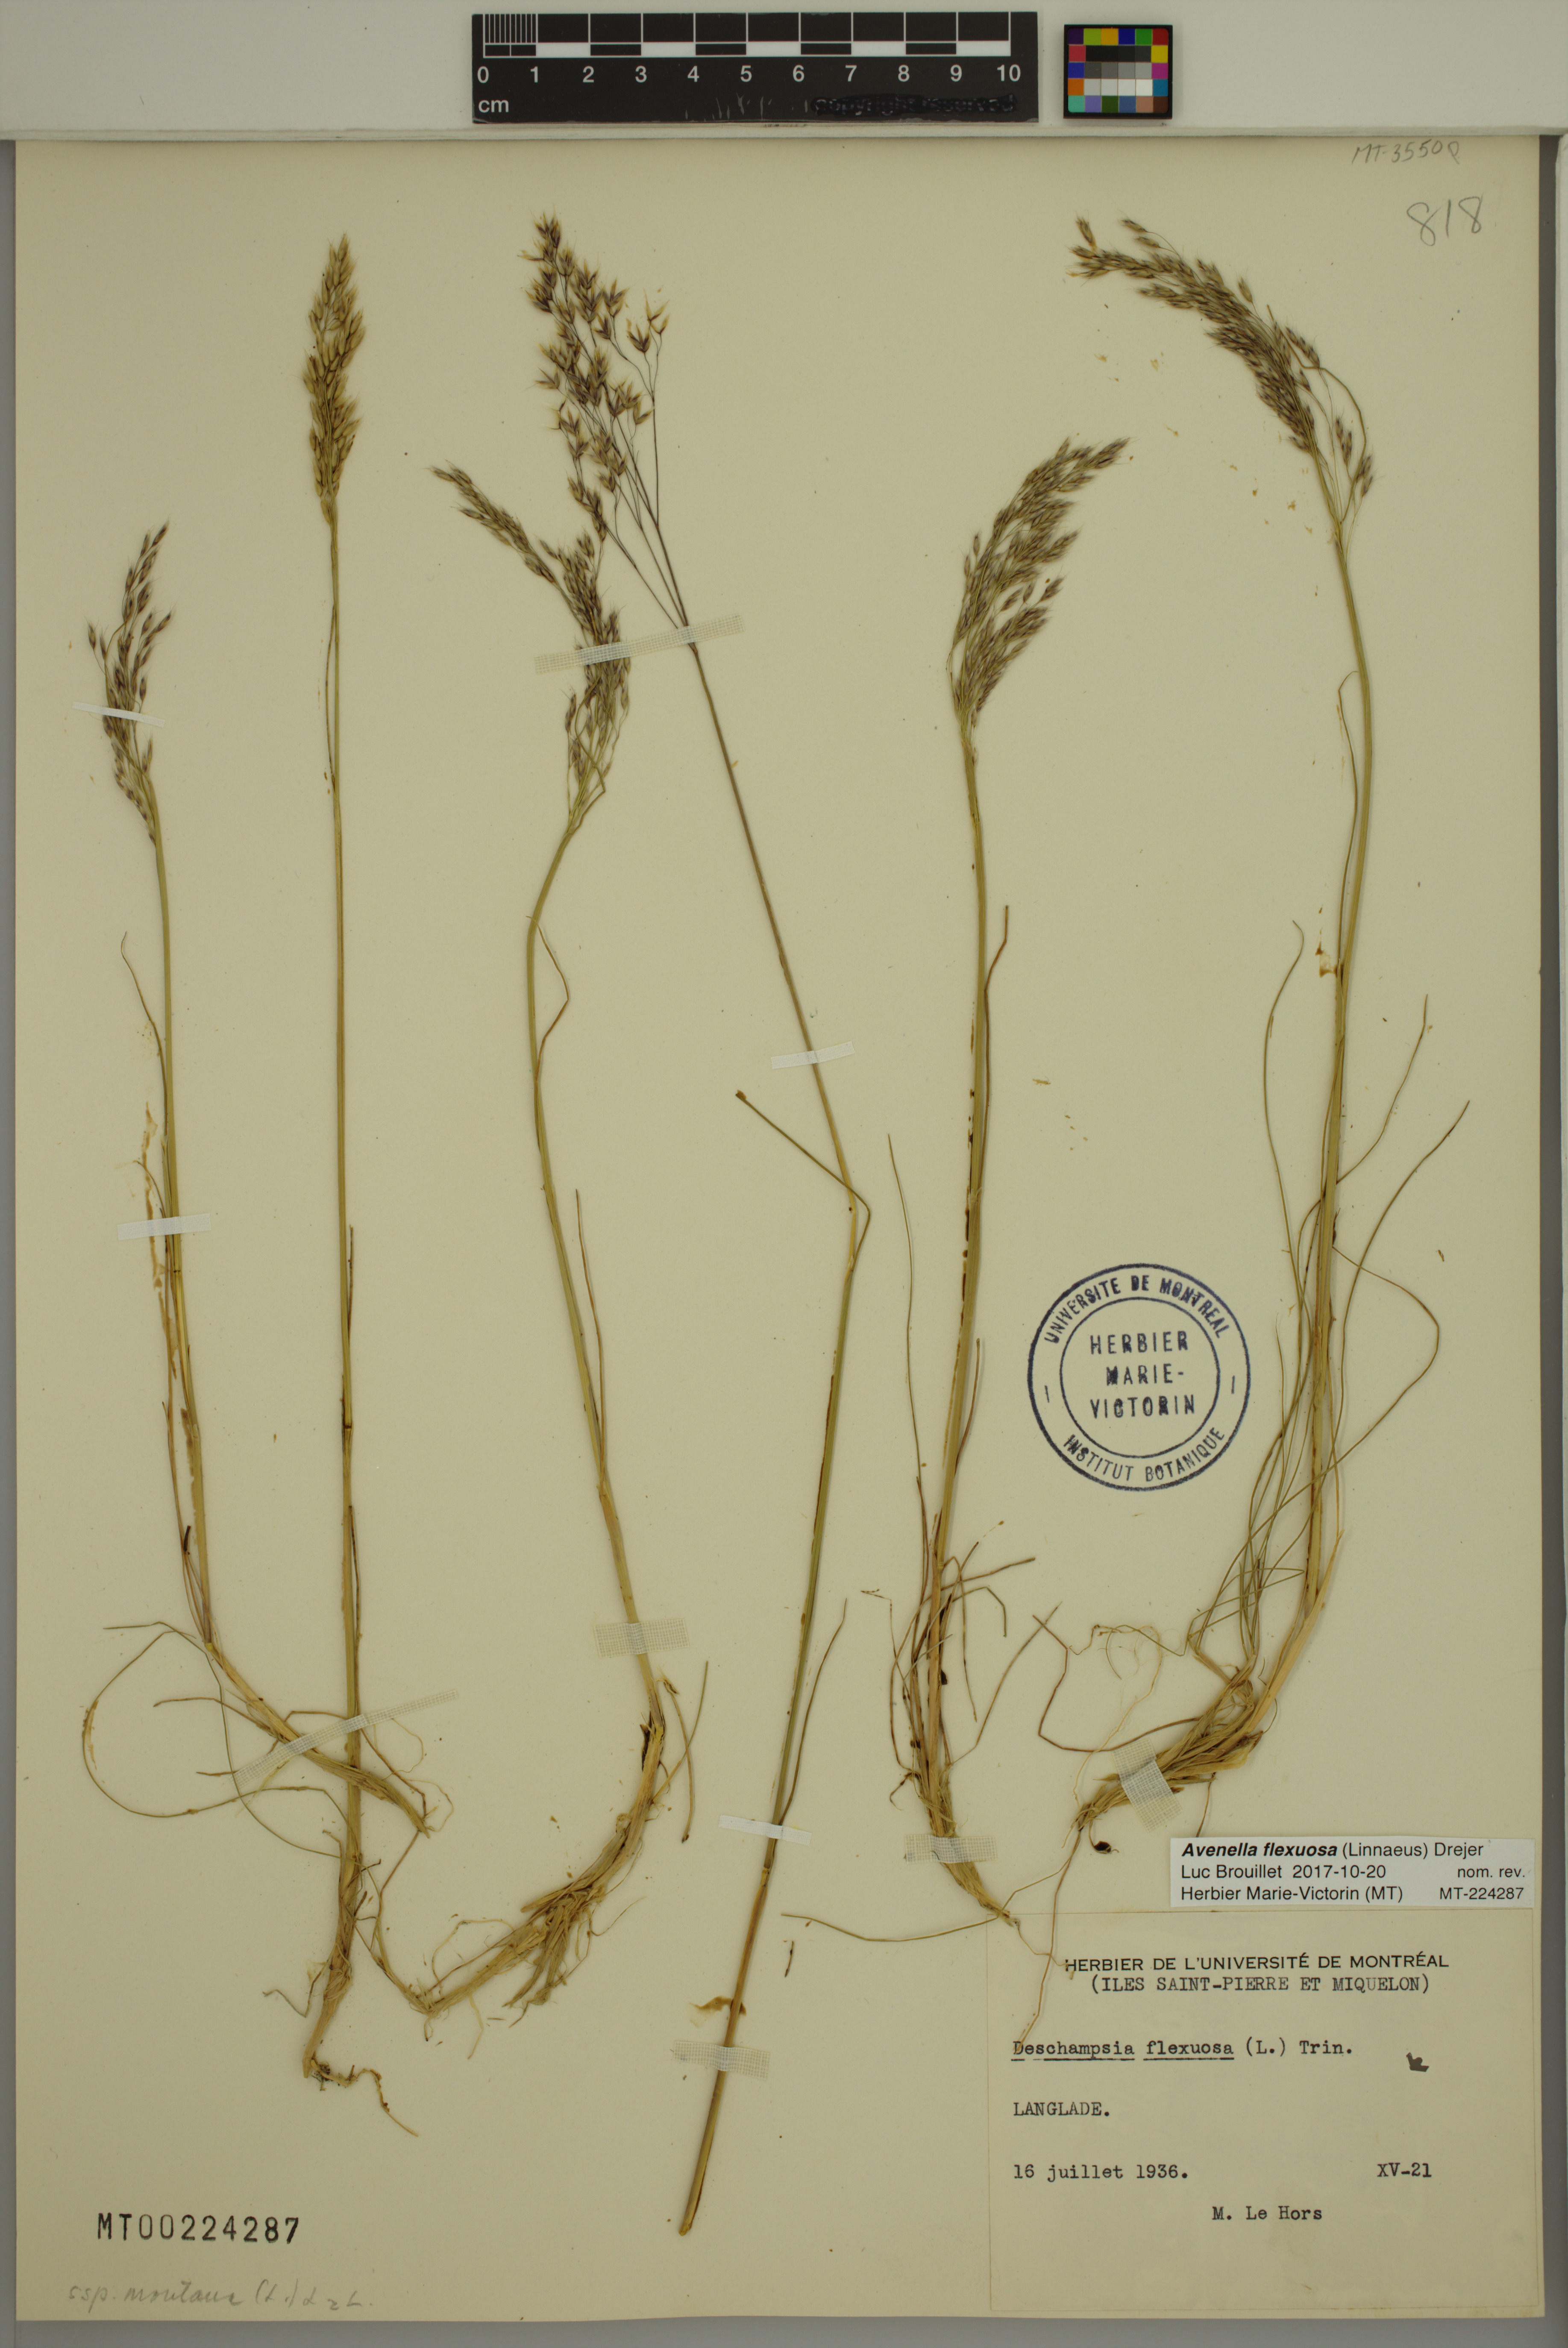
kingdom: Plantae
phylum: Tracheophyta
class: Liliopsida
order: Poales
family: Poaceae
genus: Avenella
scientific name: Avenella flexuosa
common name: Wavy hairgrass
